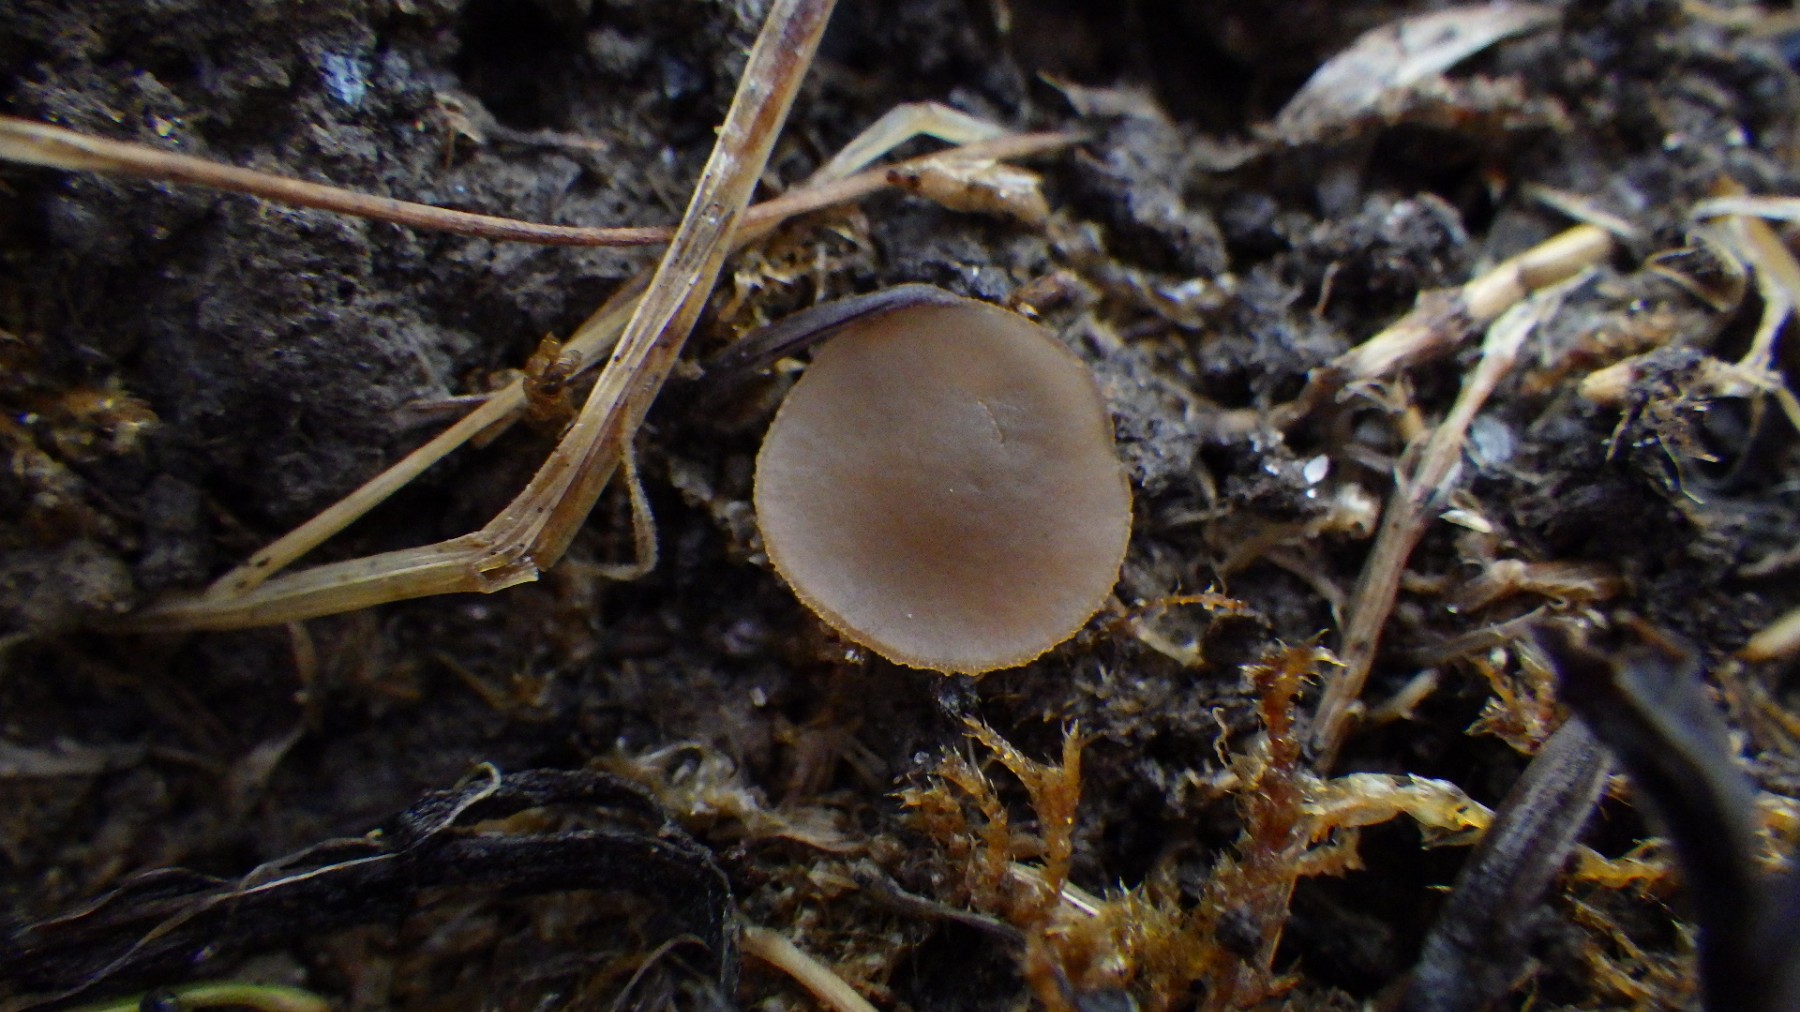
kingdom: Fungi
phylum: Ascomycota
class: Pezizomycetes
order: Pezizales
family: Pezizaceae
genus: Peziza
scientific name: Peziza fimeti
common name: møg-bægersvamp
